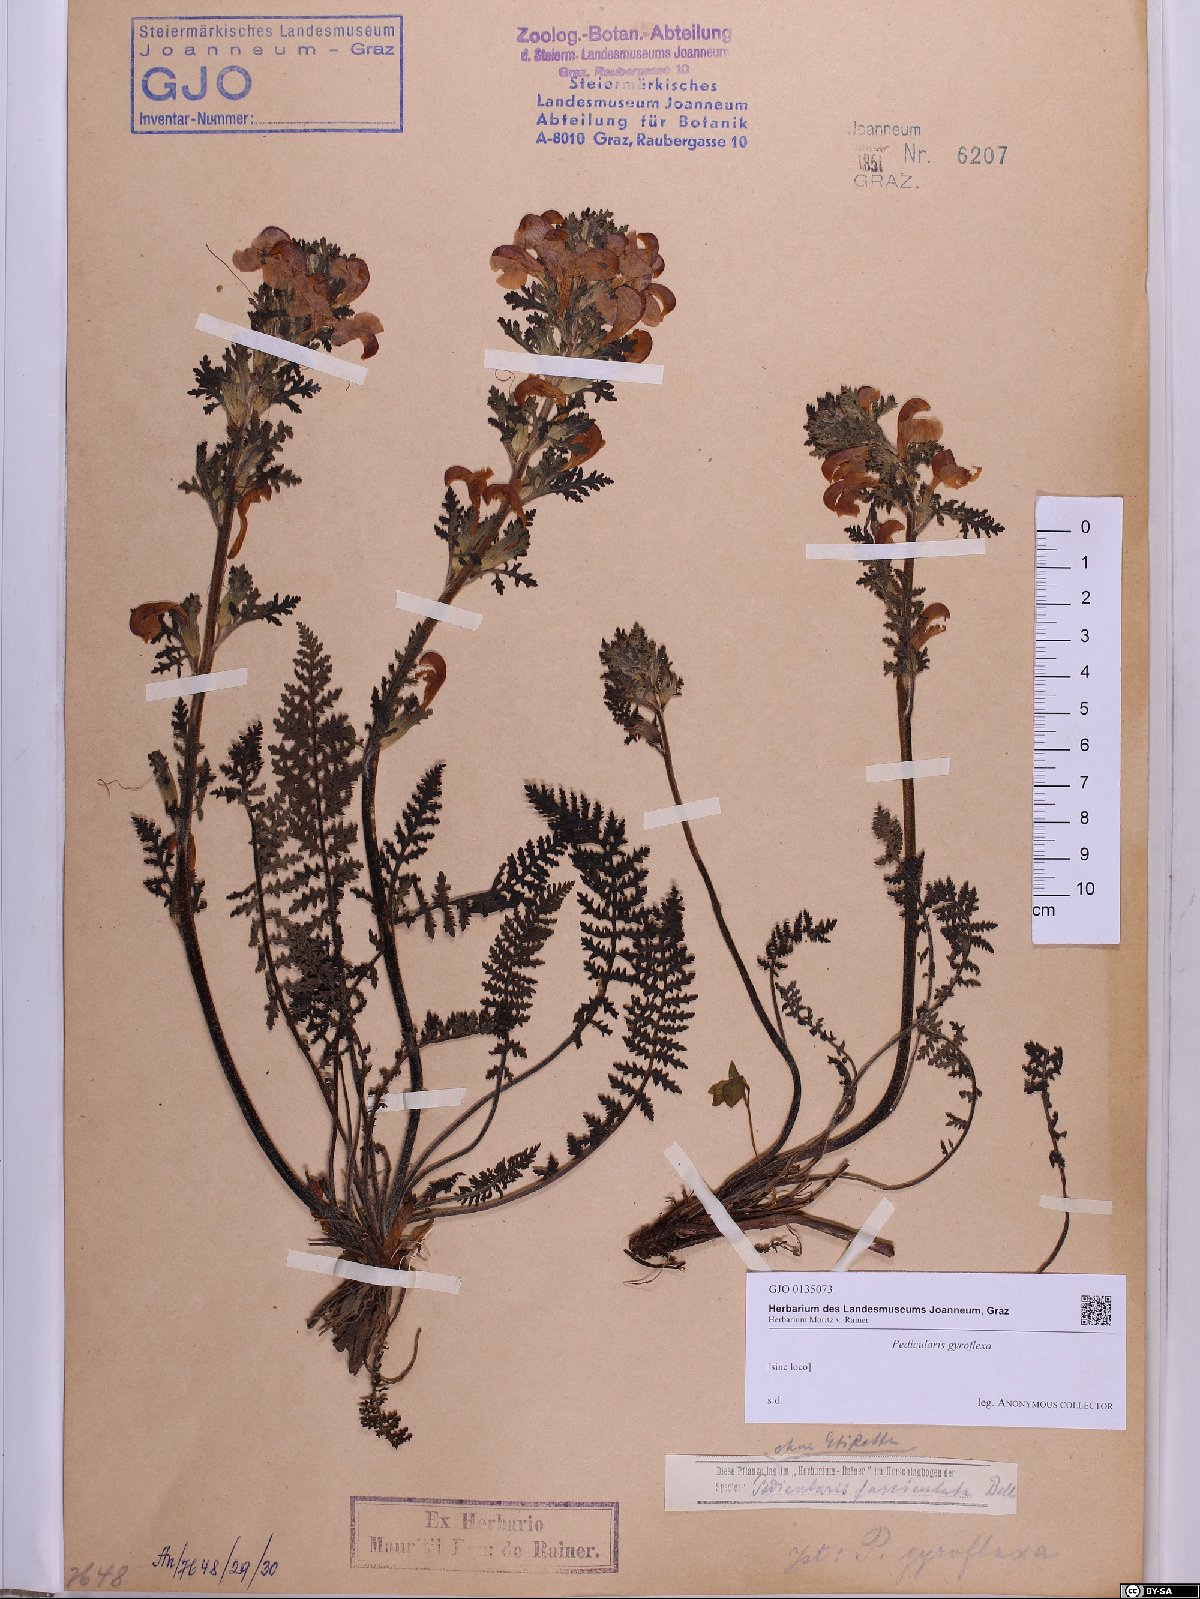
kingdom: Plantae
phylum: Tracheophyta
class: Magnoliopsida
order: Lamiales
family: Orobanchaceae
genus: Pedicularis
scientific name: Pedicularis gyroflexa
